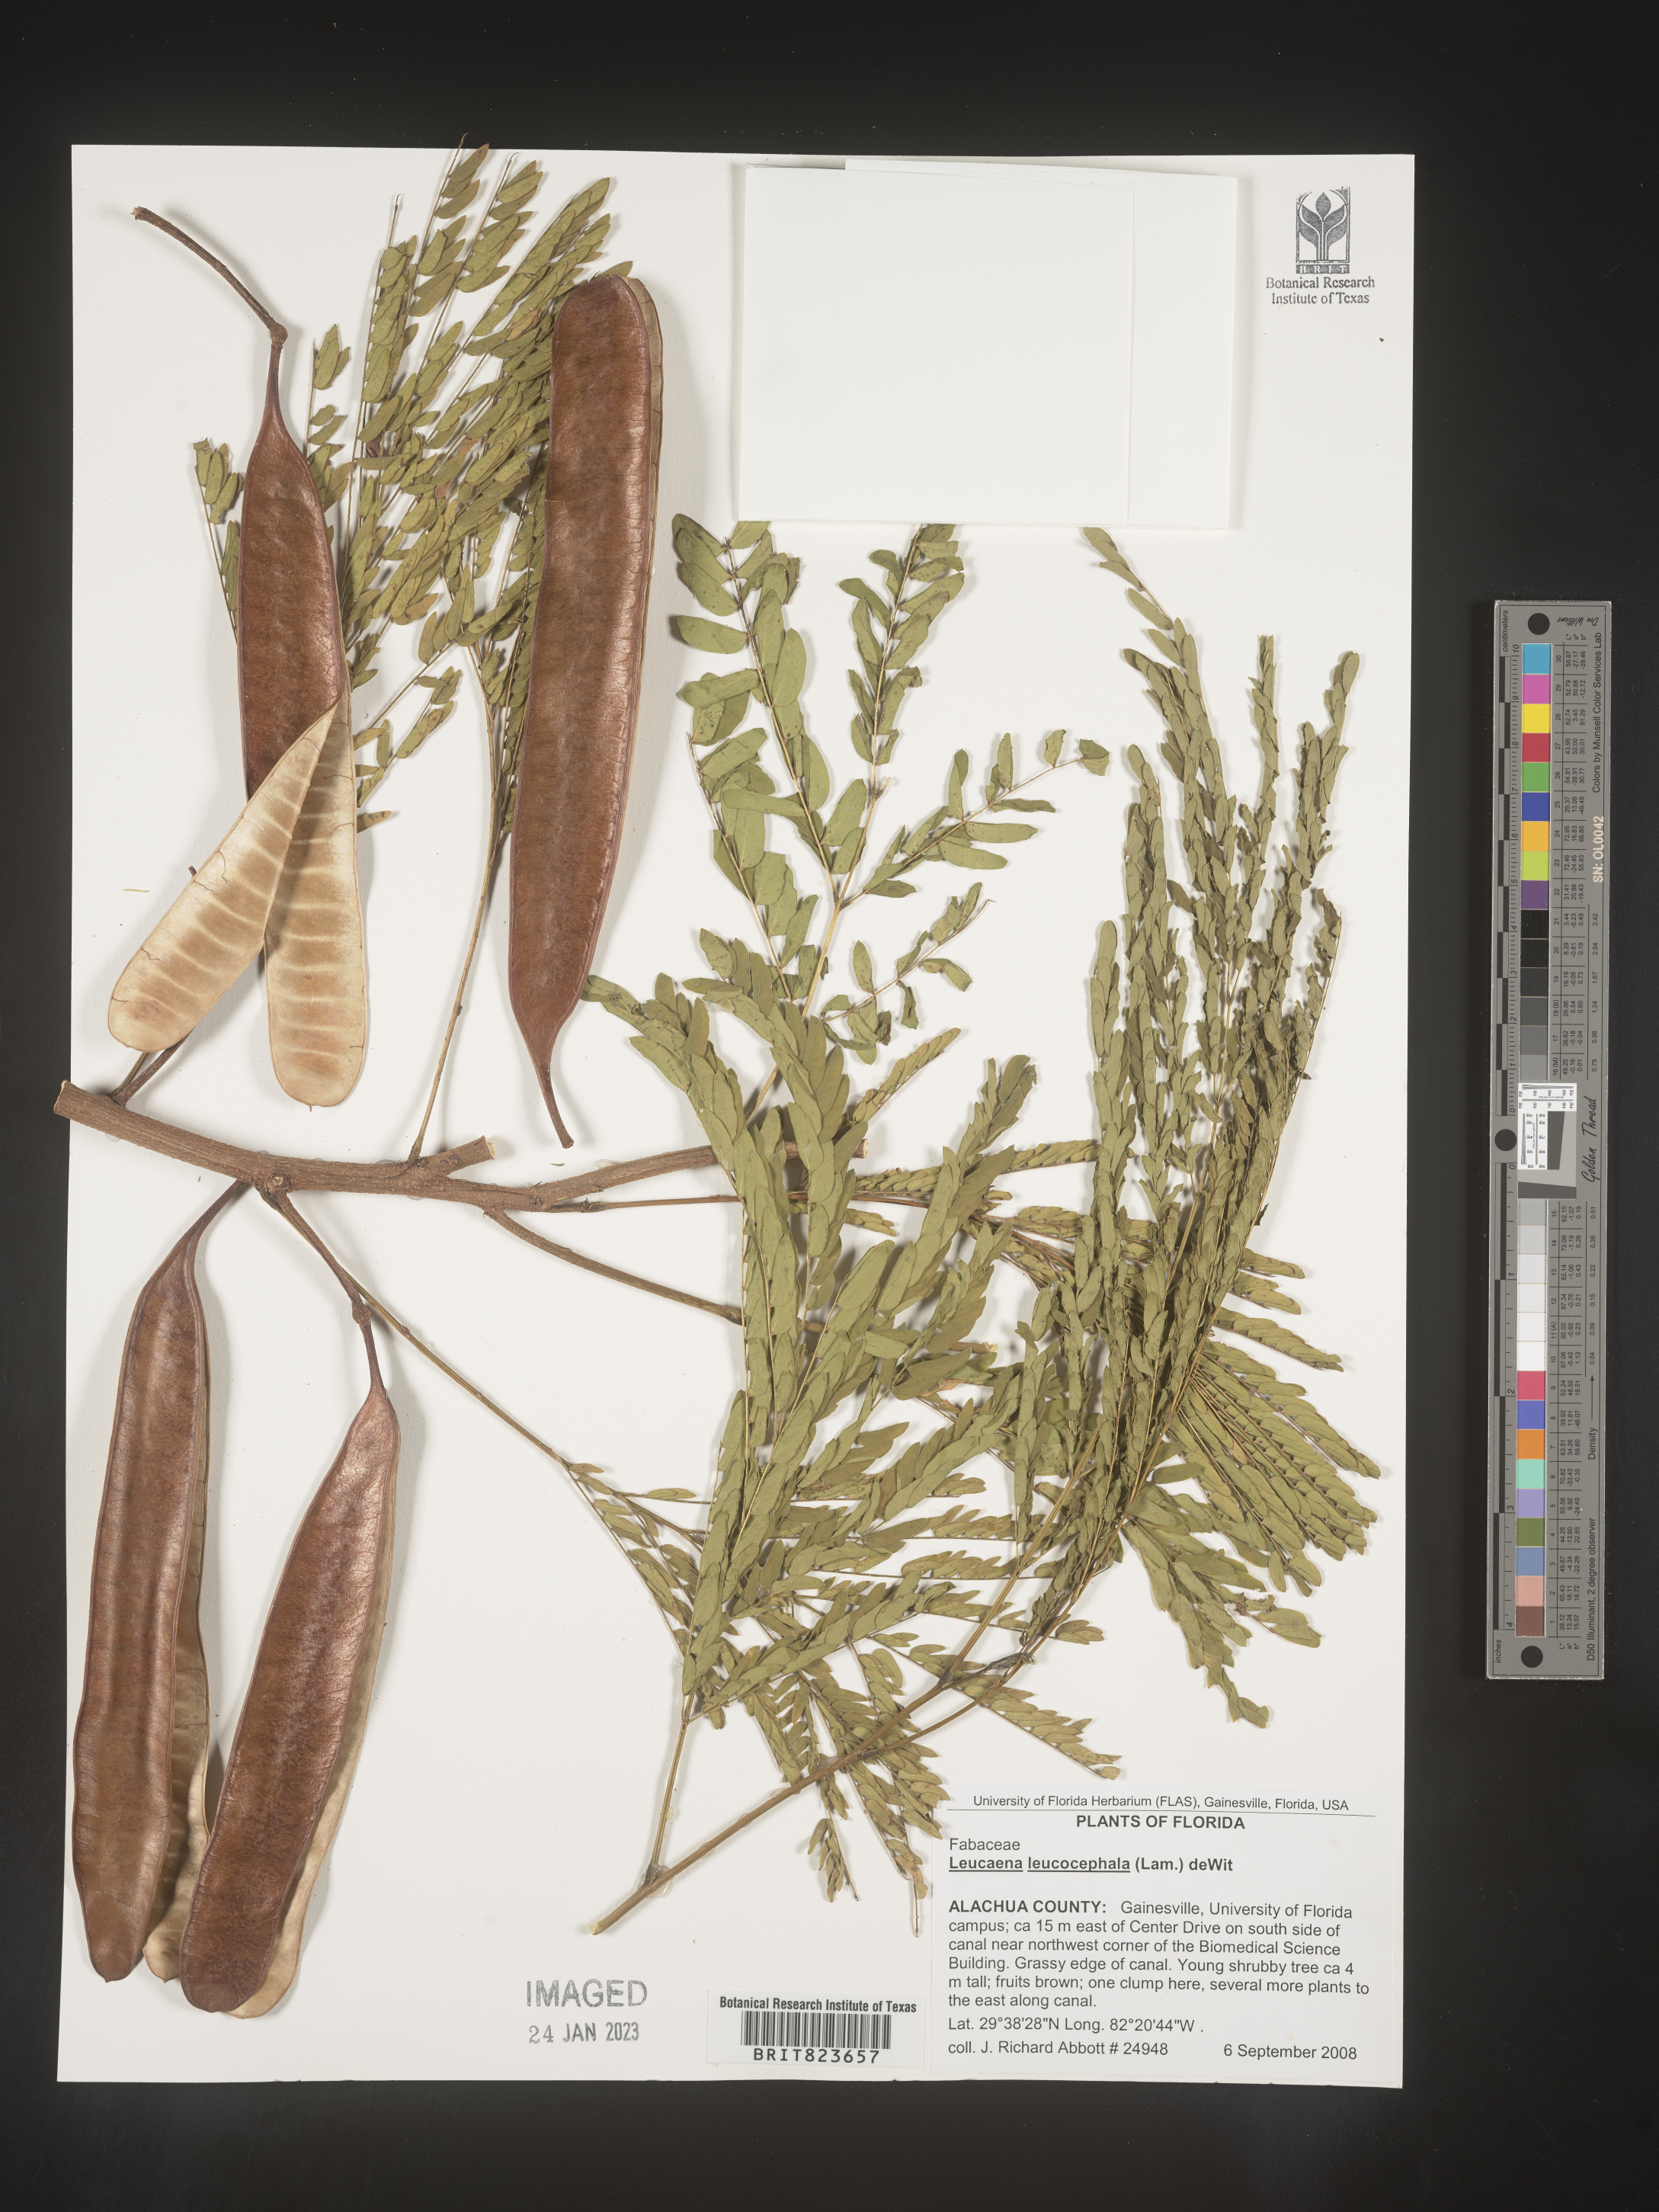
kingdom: Plantae
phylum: Tracheophyta
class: Magnoliopsida
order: Fabales
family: Fabaceae
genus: Leucaena
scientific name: Leucaena
